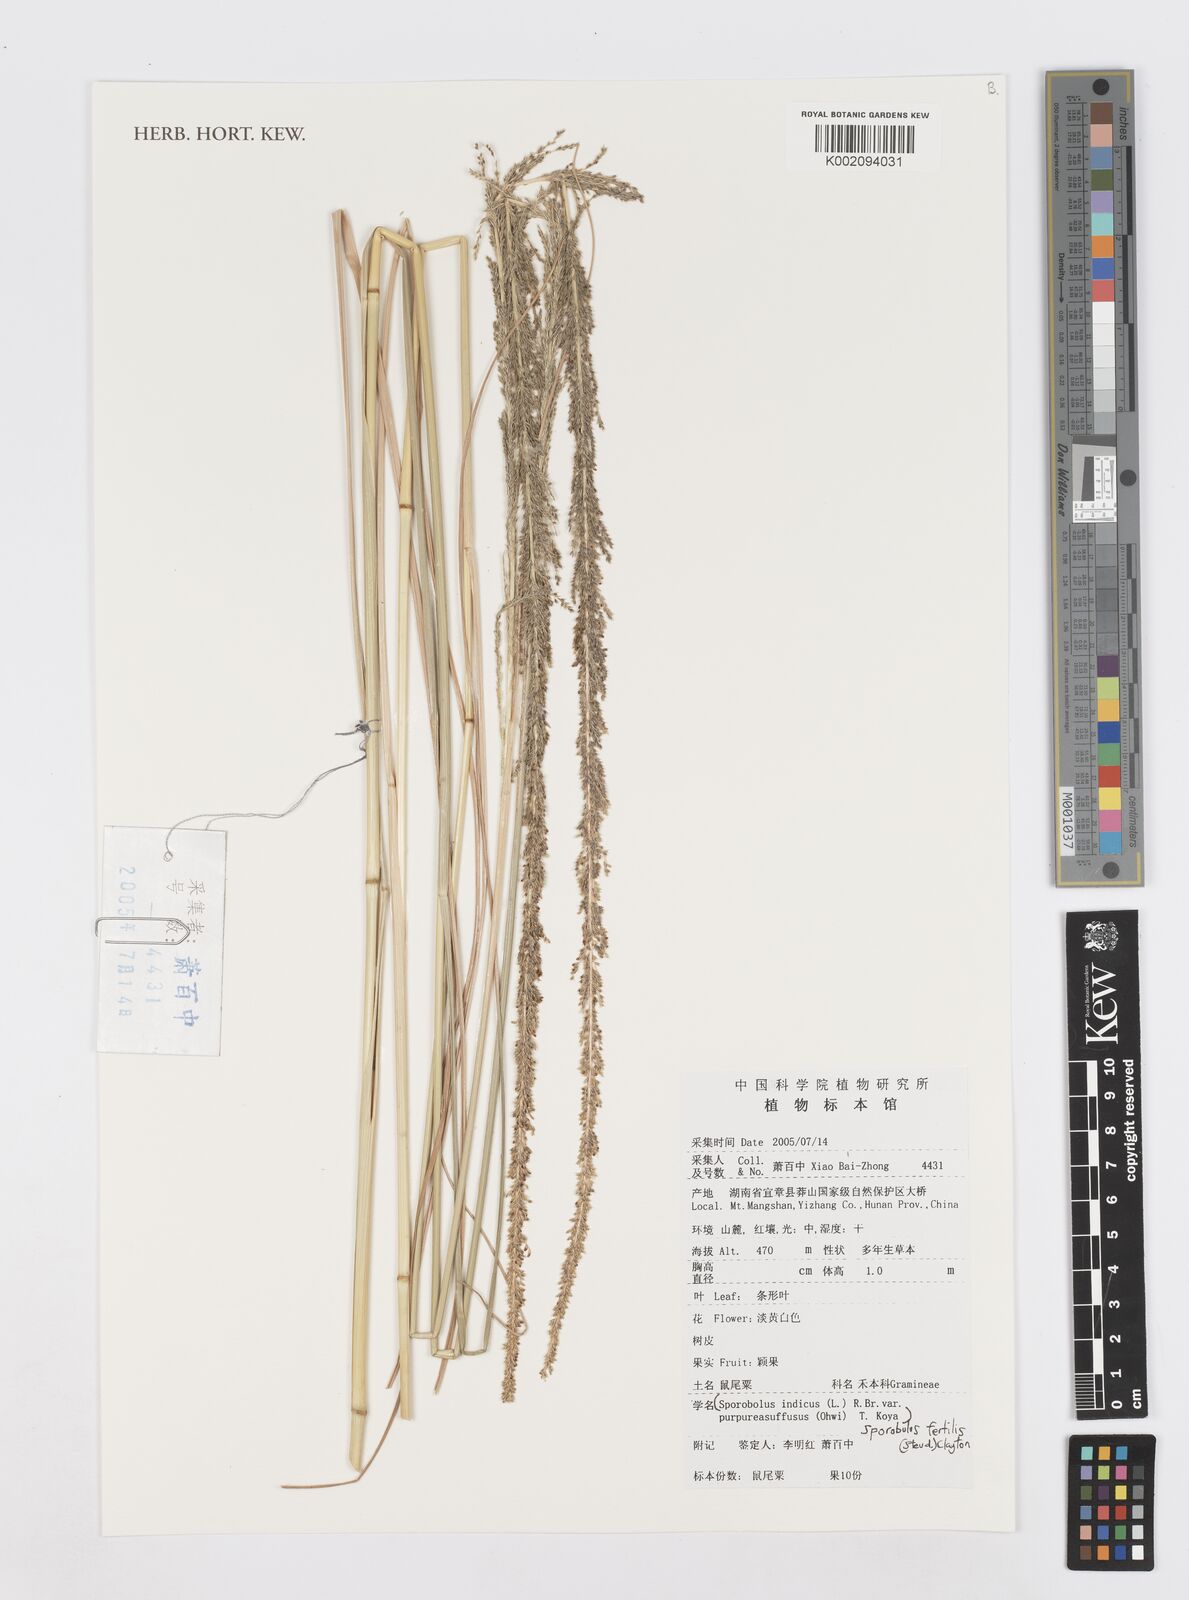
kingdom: Plantae
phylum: Tracheophyta
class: Liliopsida
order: Poales
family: Poaceae
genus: Sporobolus
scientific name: Sporobolus fertilis
